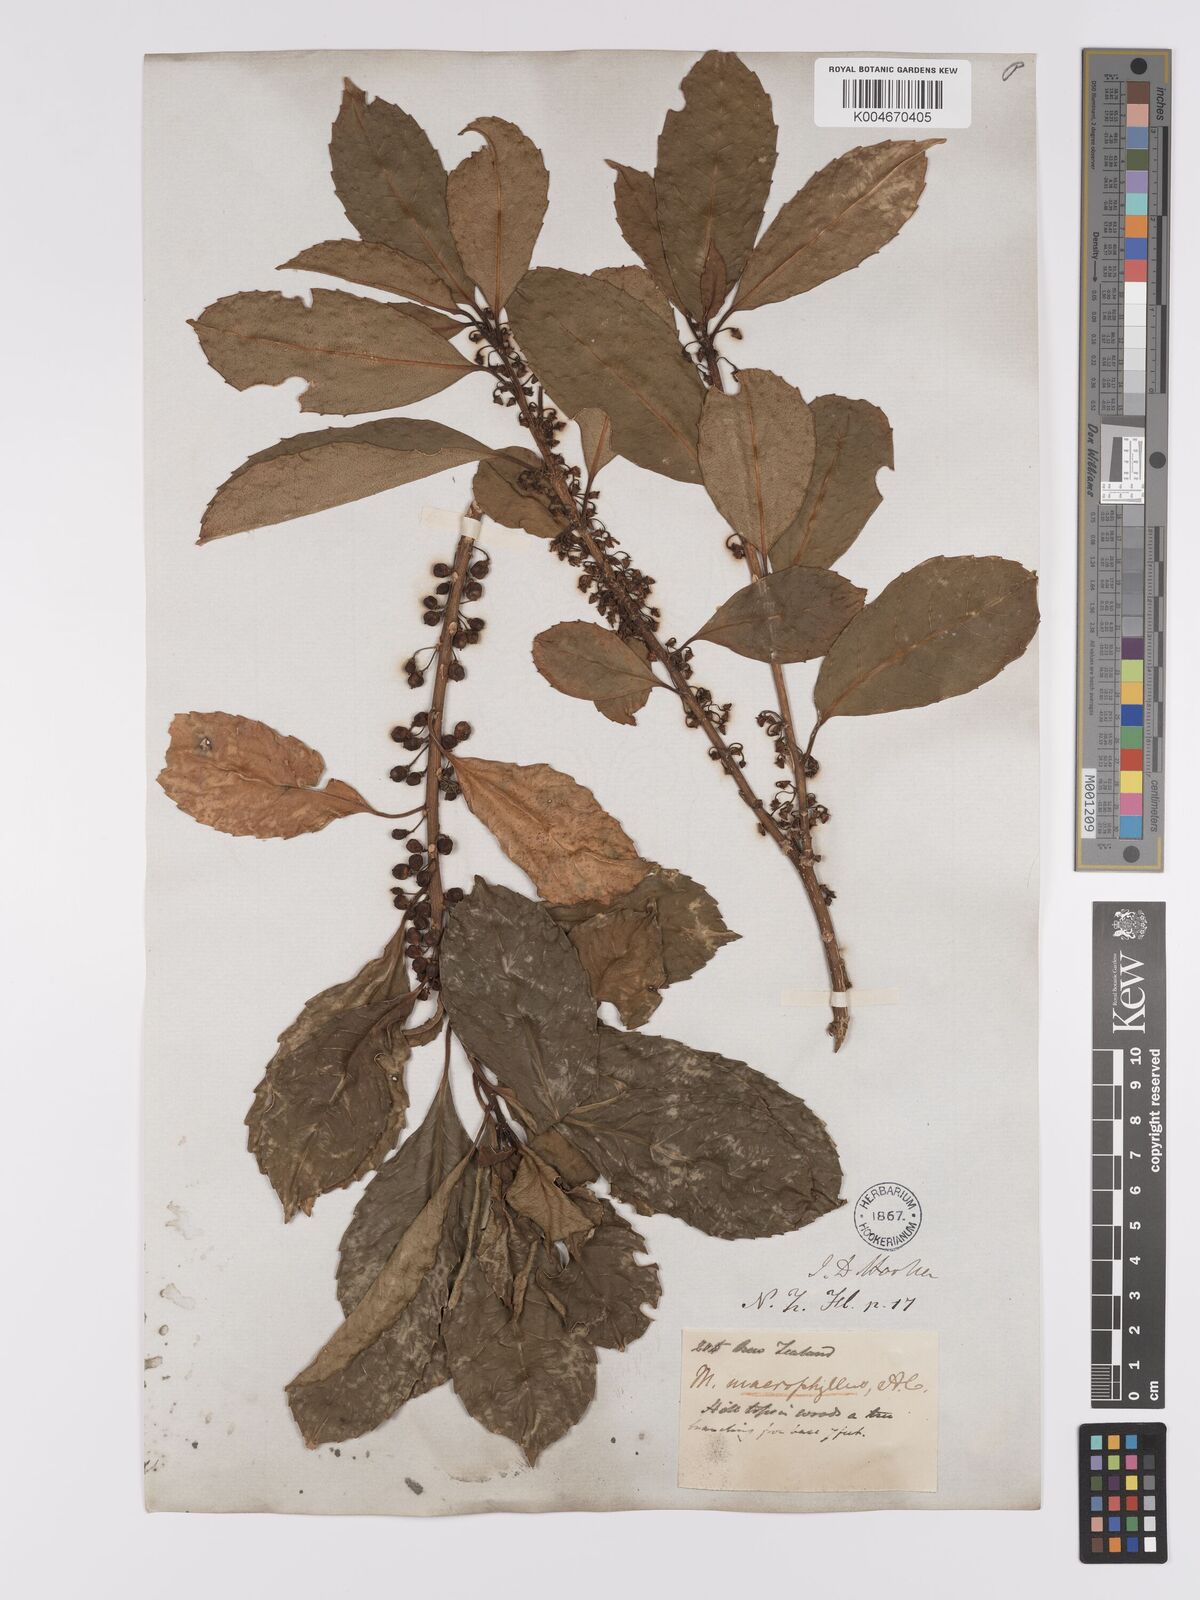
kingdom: Plantae
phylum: Tracheophyta
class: Magnoliopsida
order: Malpighiales
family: Violaceae
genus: Melicytus
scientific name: Melicytus macrophyllus
